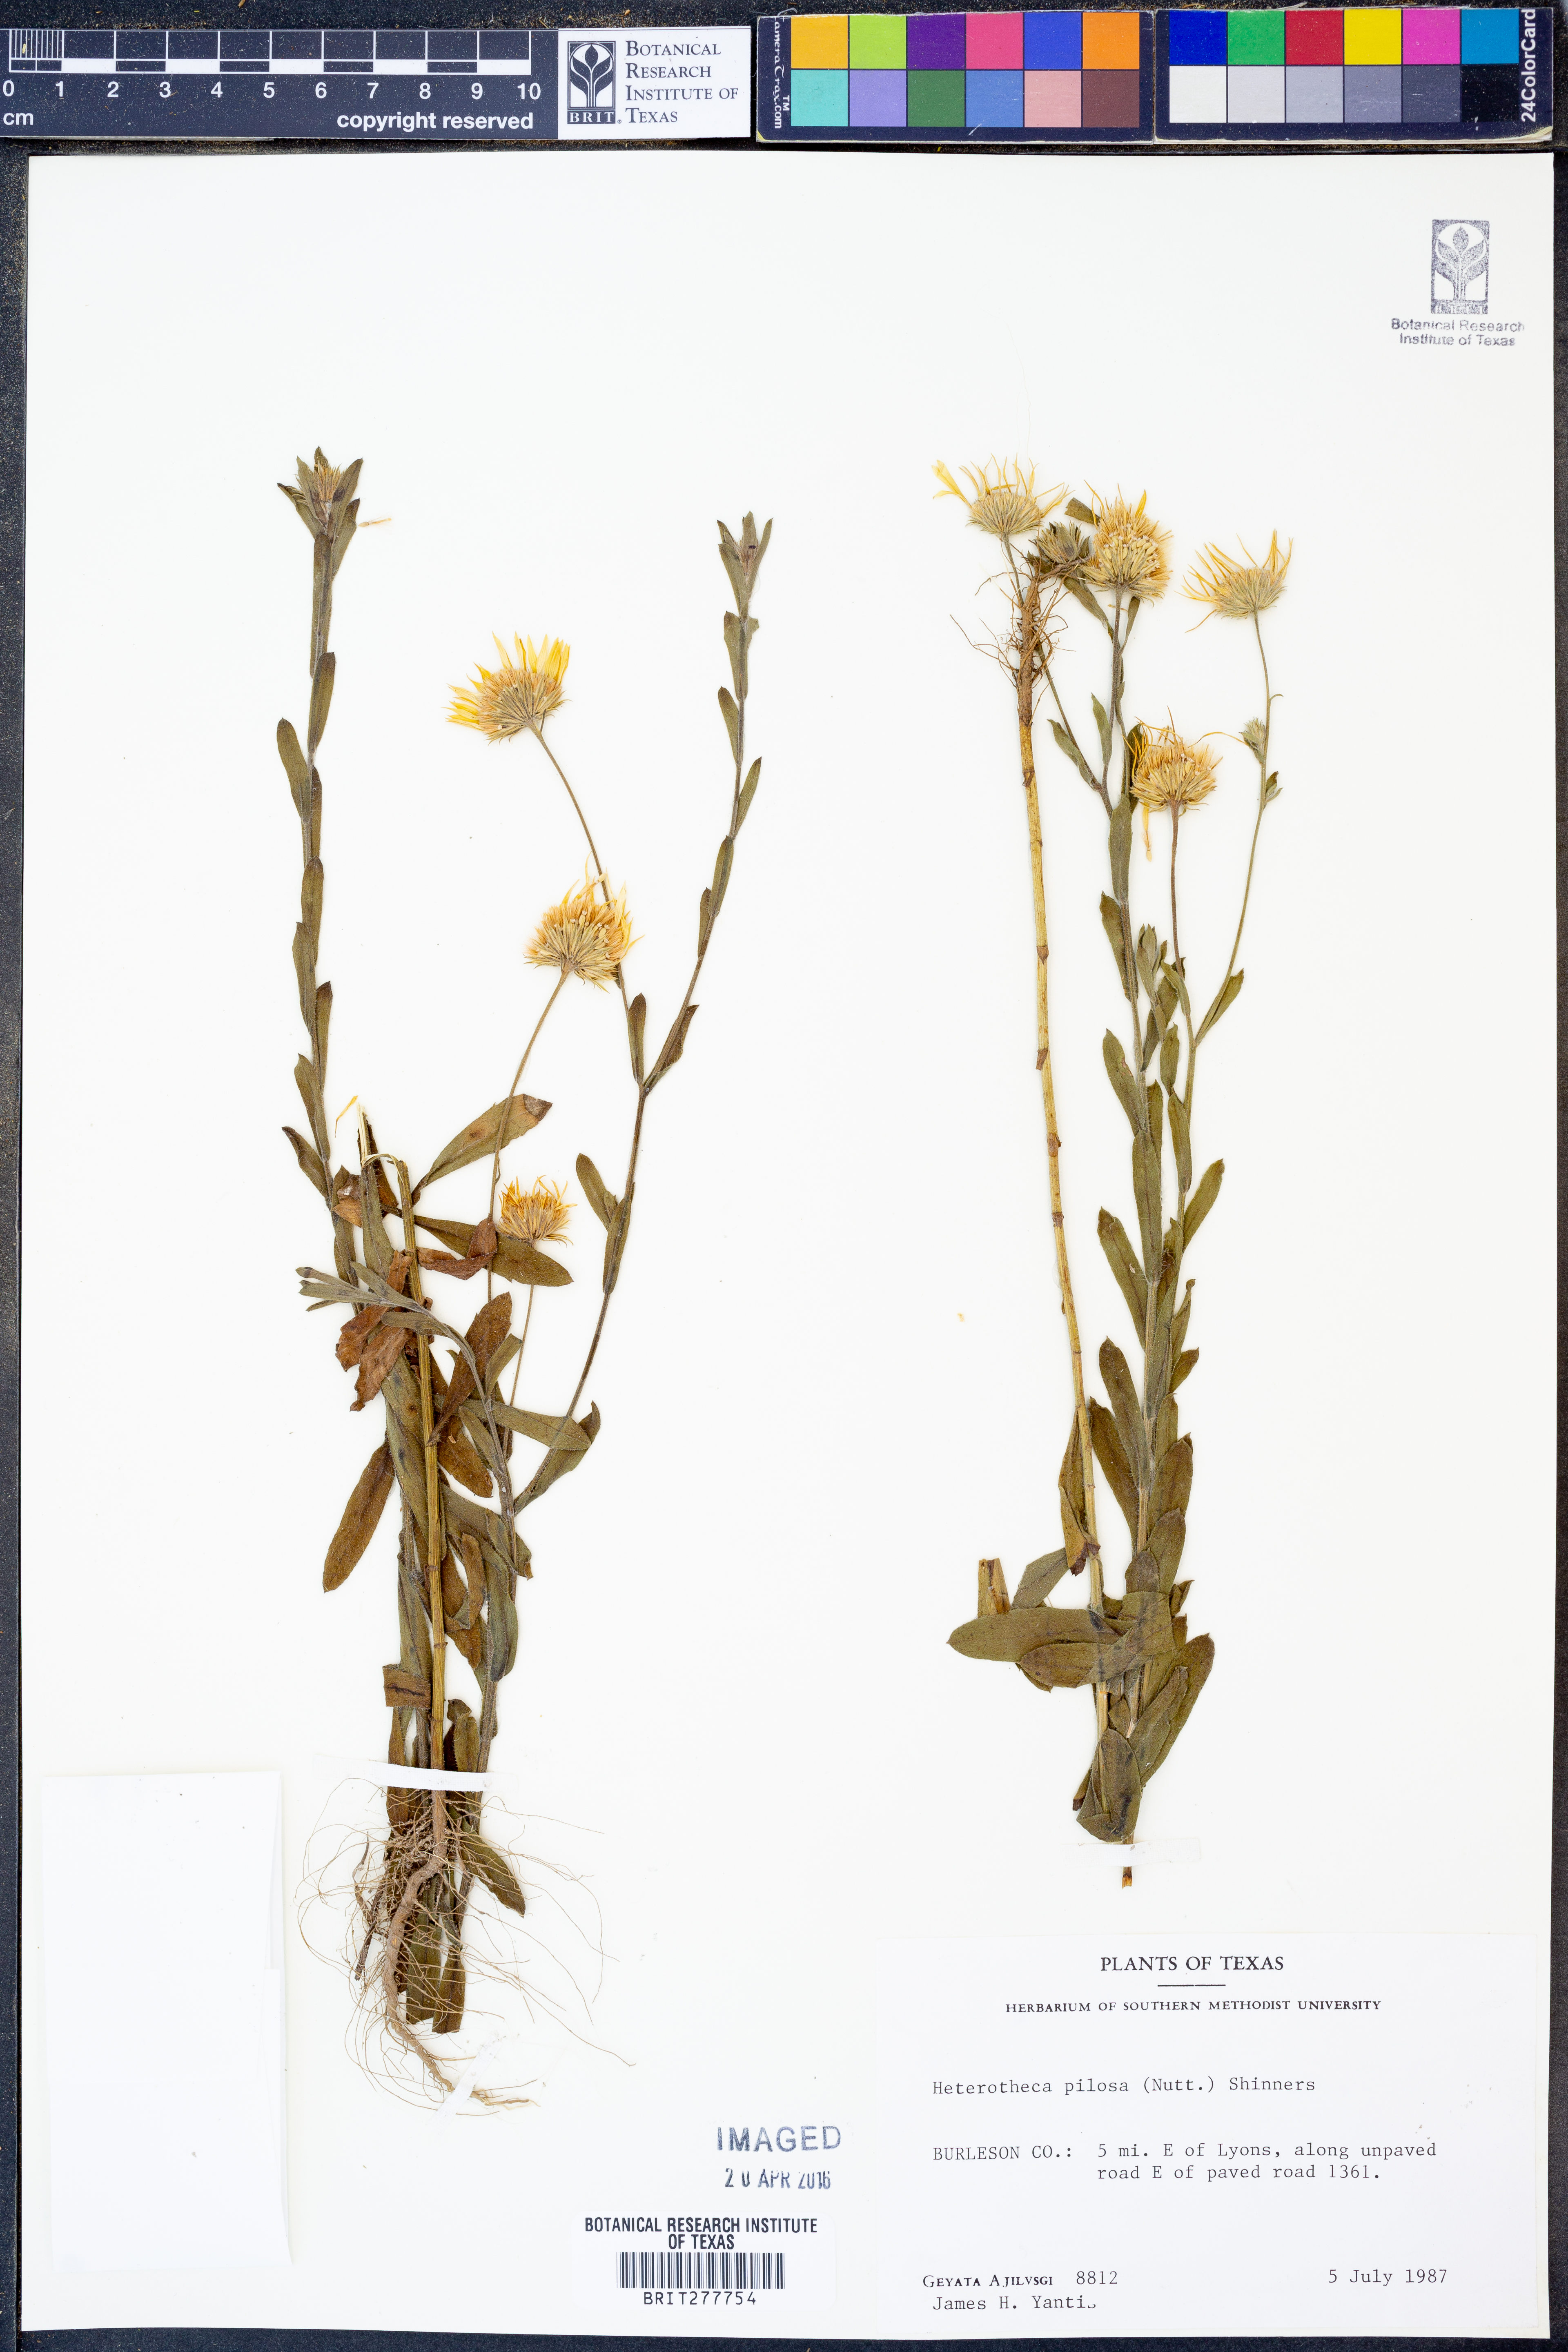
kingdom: Plantae
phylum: Tracheophyta
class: Magnoliopsida
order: Asterales
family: Asteraceae
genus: Bradburia
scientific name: Bradburia pilosa
